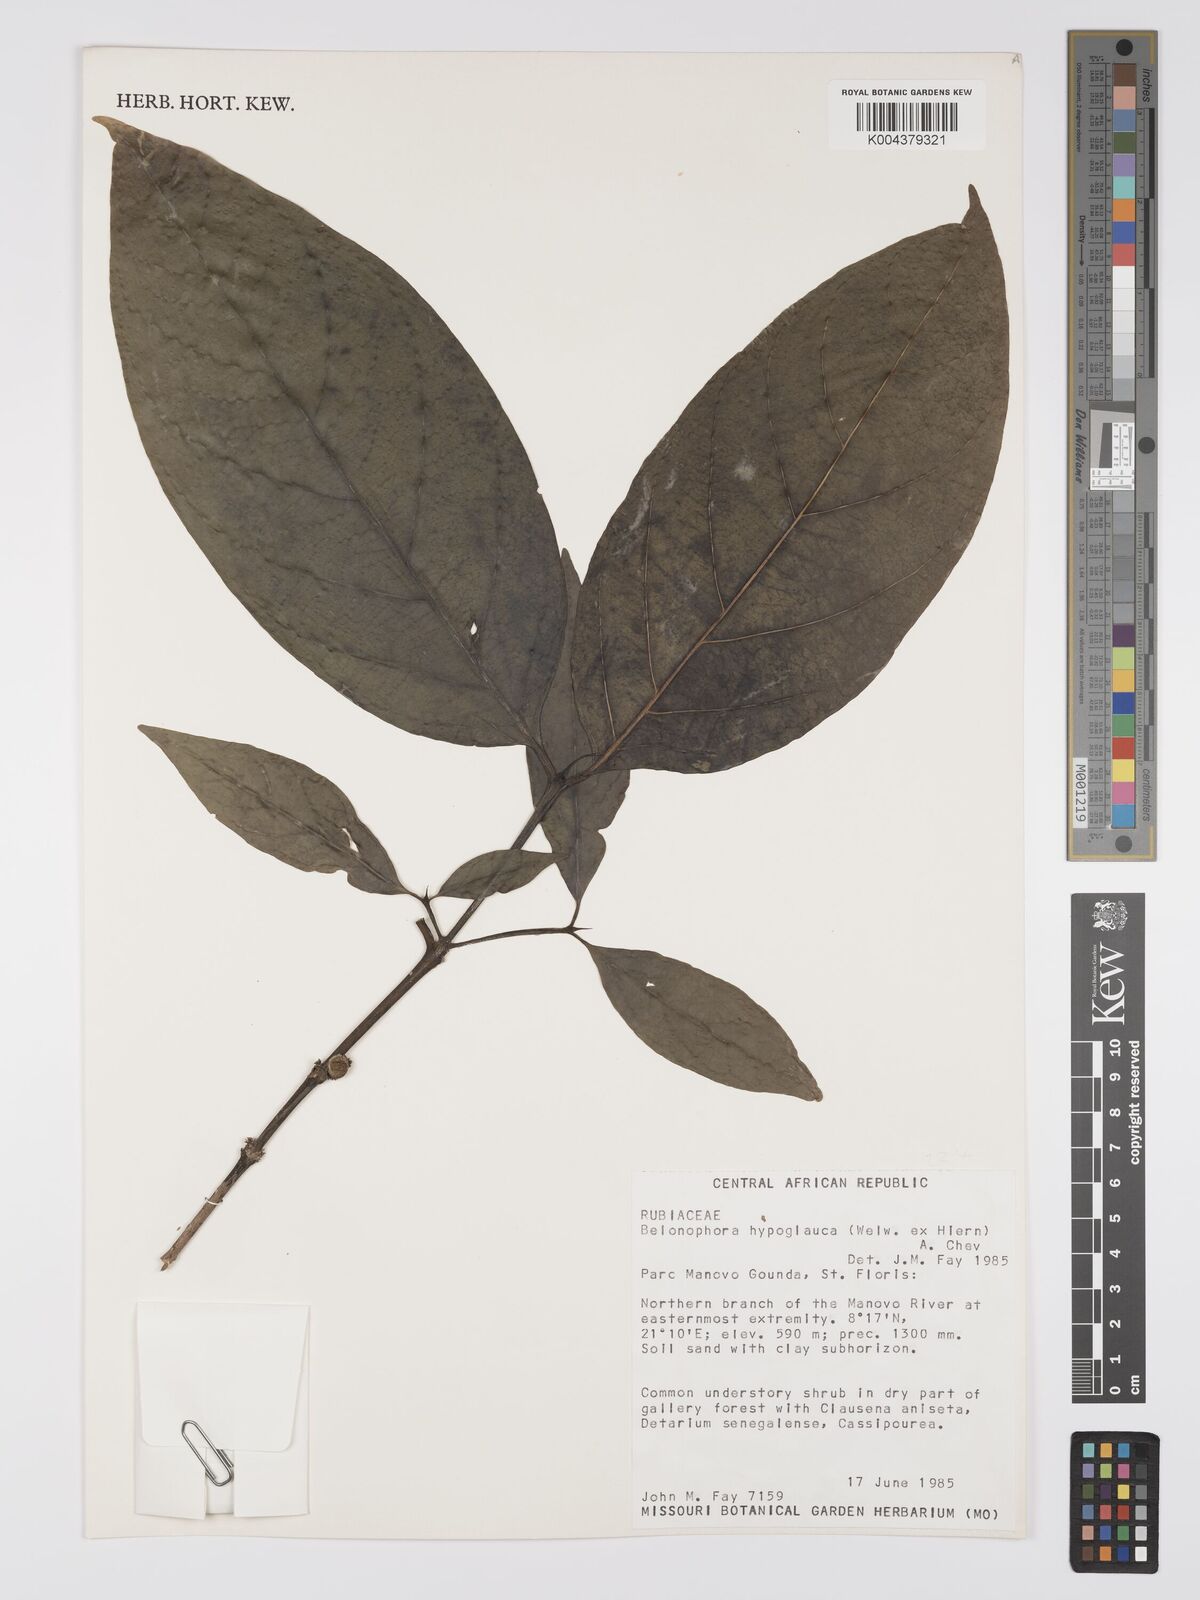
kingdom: Plantae
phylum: Tracheophyta
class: Magnoliopsida
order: Gentianales
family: Rubiaceae
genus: Belonophora
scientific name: Belonophora coffeoides
